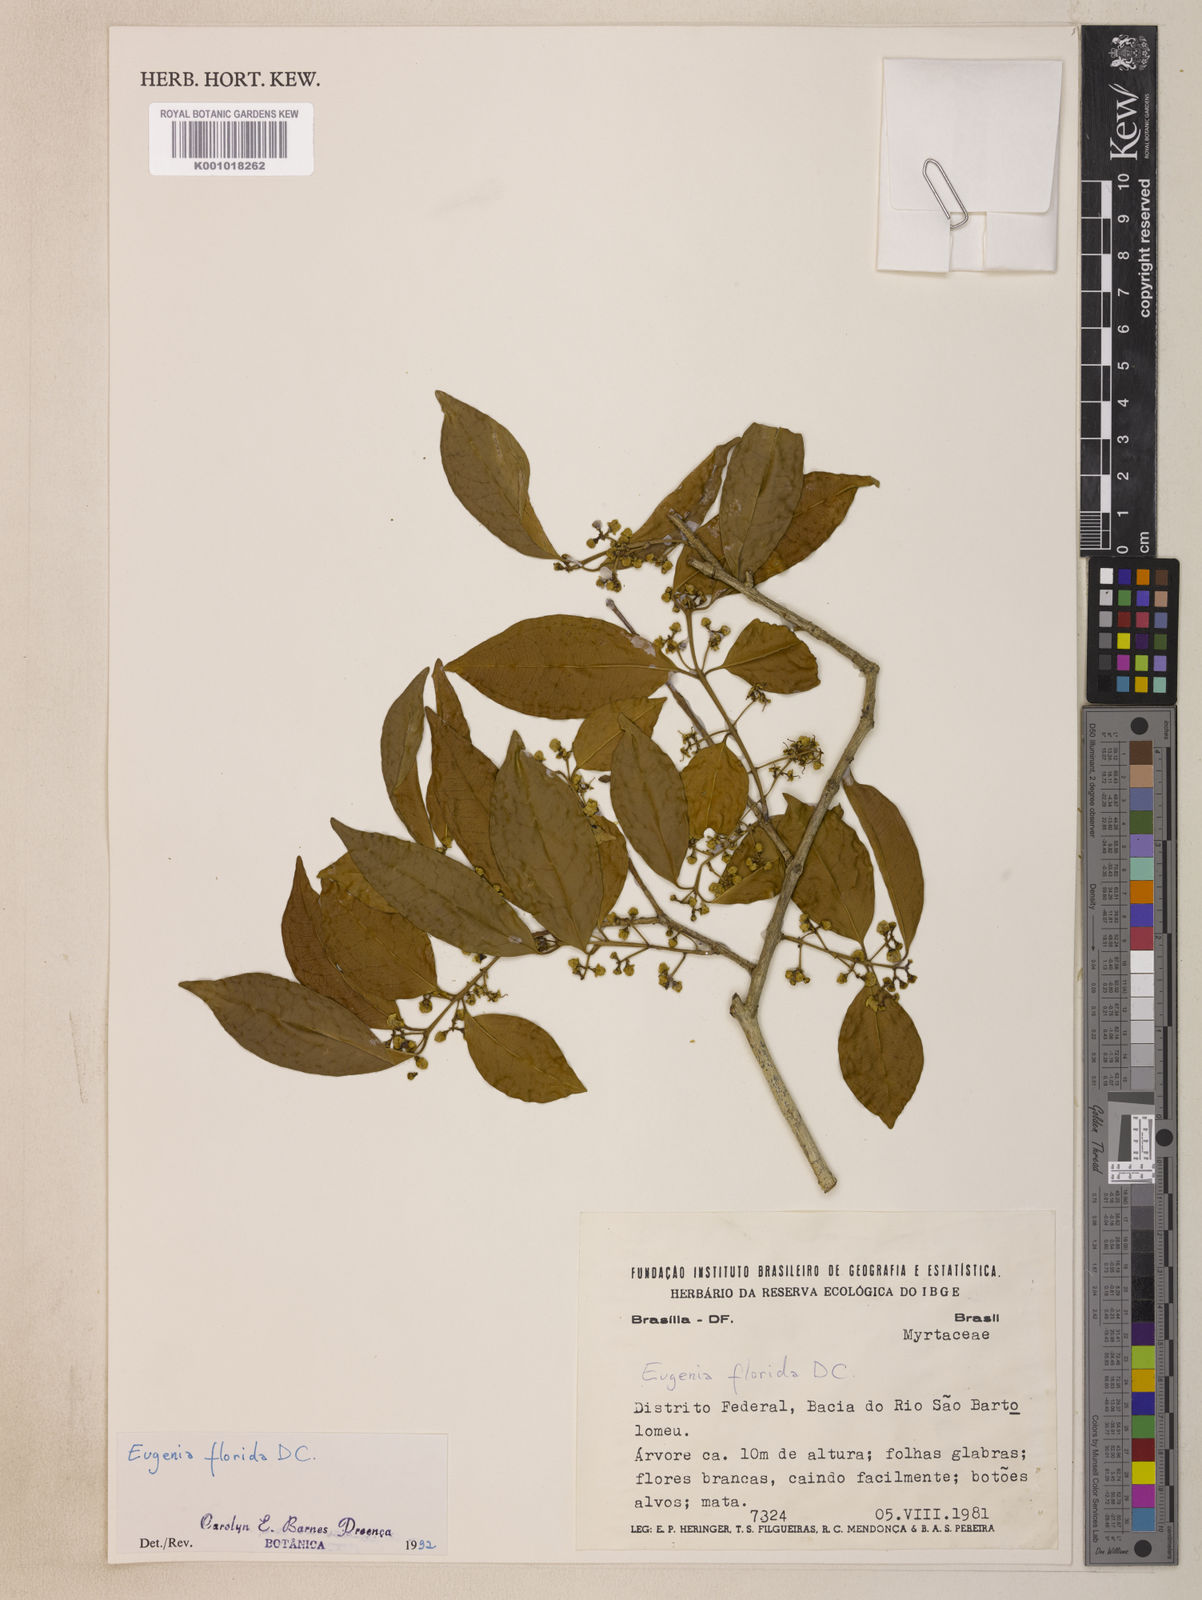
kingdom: Plantae
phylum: Tracheophyta
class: Magnoliopsida
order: Myrtales
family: Myrtaceae
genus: Eugenia
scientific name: Eugenia florida
